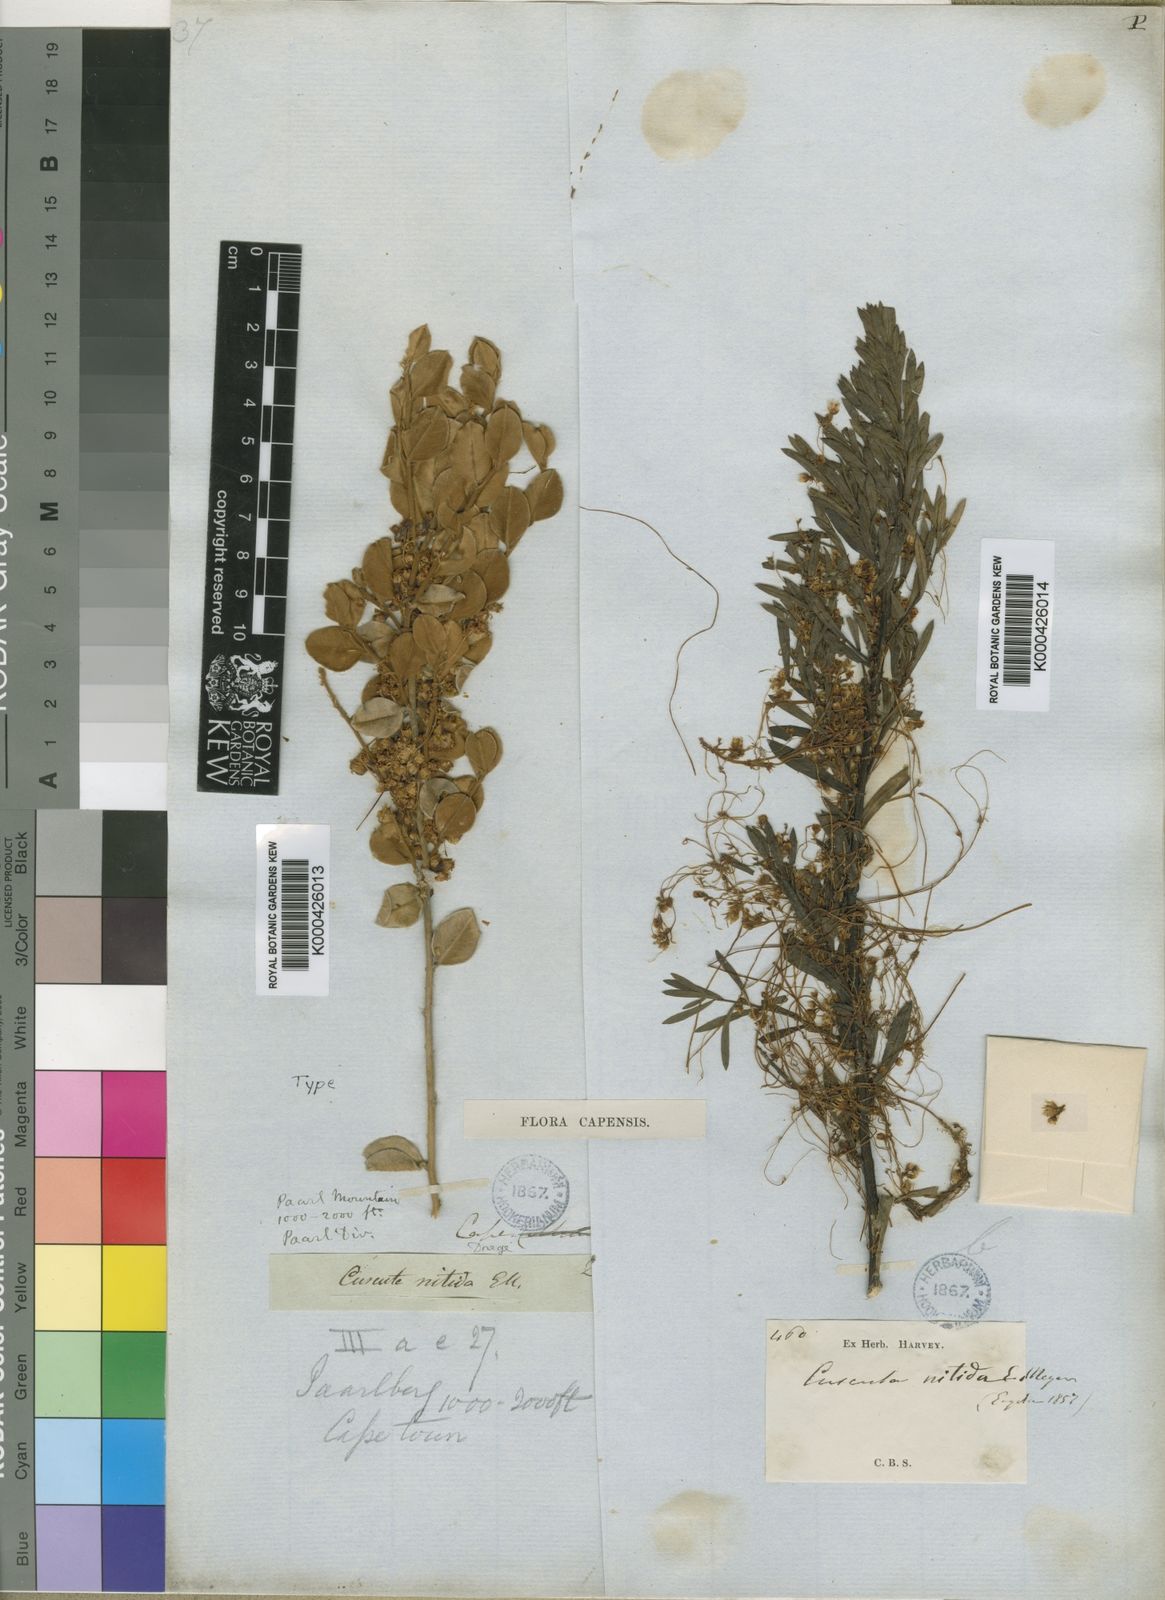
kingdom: Plantae
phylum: Tracheophyta
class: Magnoliopsida
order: Solanales
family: Convolvulaceae
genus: Cuscuta
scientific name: Cuscuta
